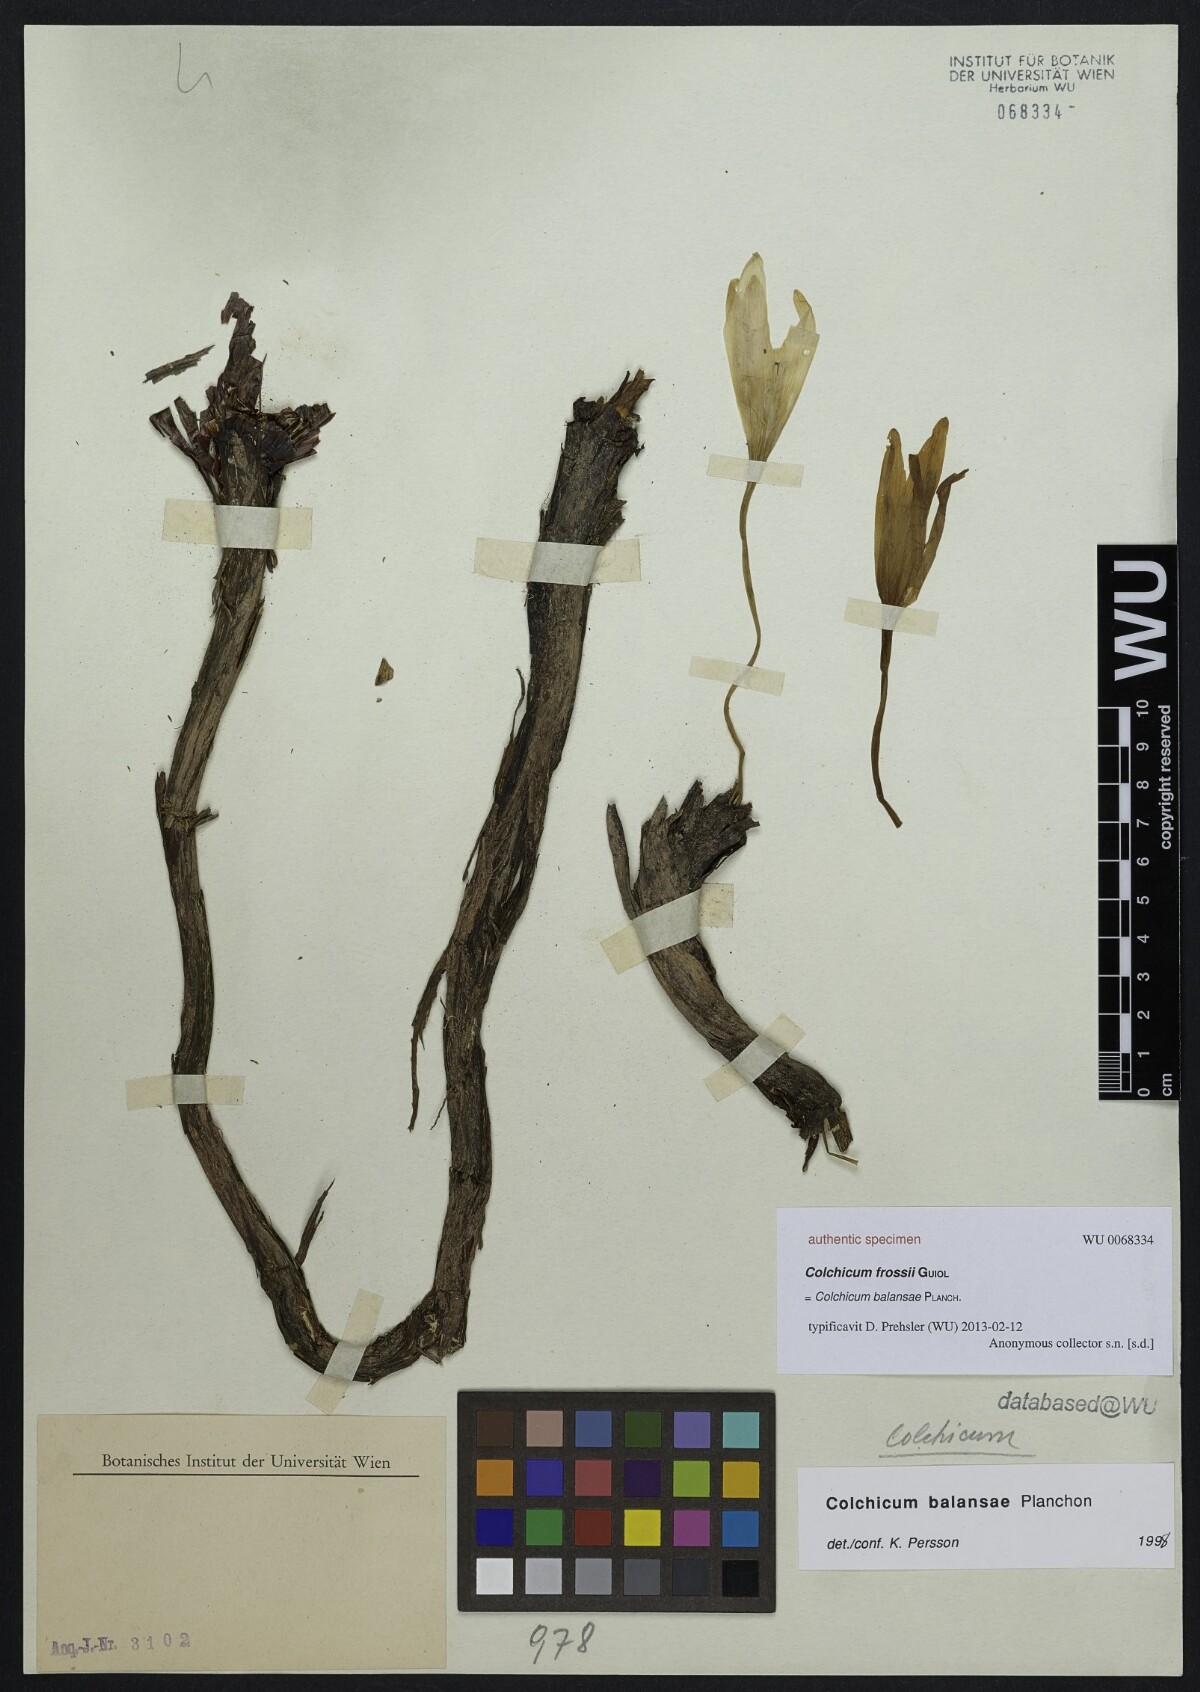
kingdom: Plantae
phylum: Tracheophyta
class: Liliopsida
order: Liliales
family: Colchicaceae
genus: Colchicum
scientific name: Colchicum
